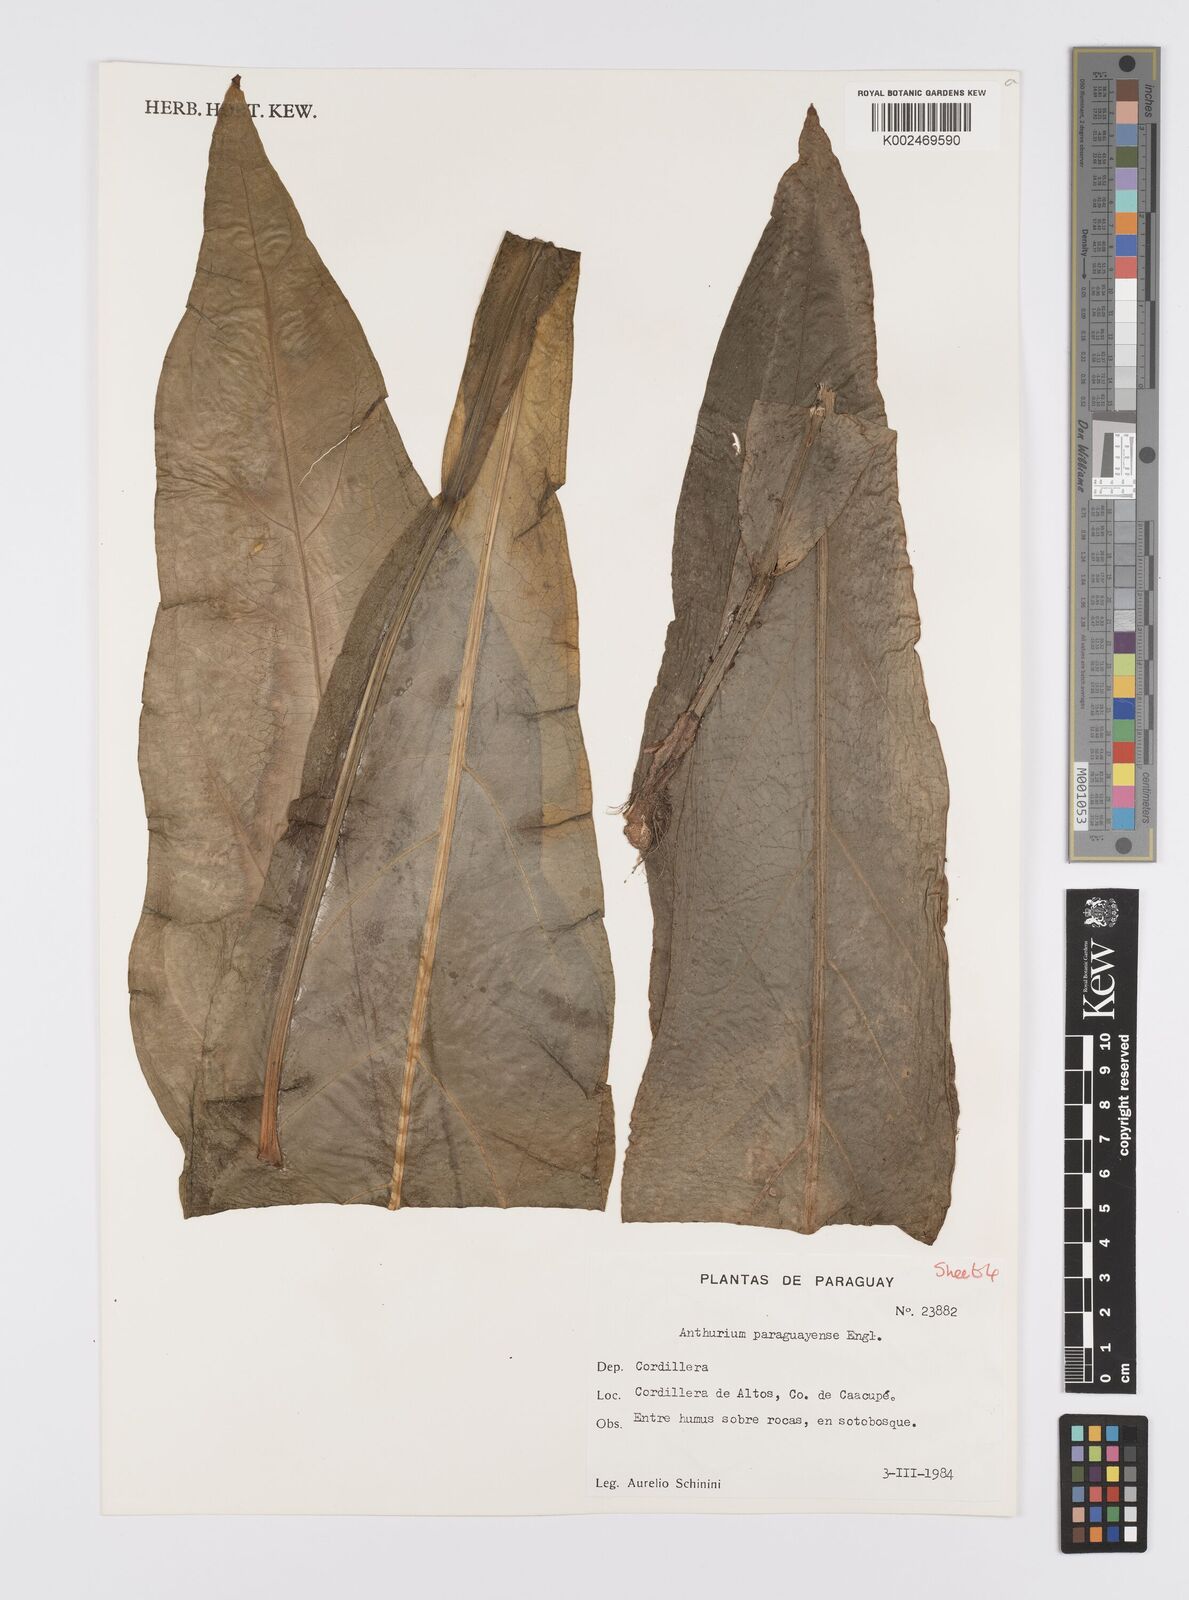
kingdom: Plantae
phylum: Tracheophyta
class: Liliopsida
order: Alismatales
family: Araceae
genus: Anthurium
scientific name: Anthurium paraguayense
